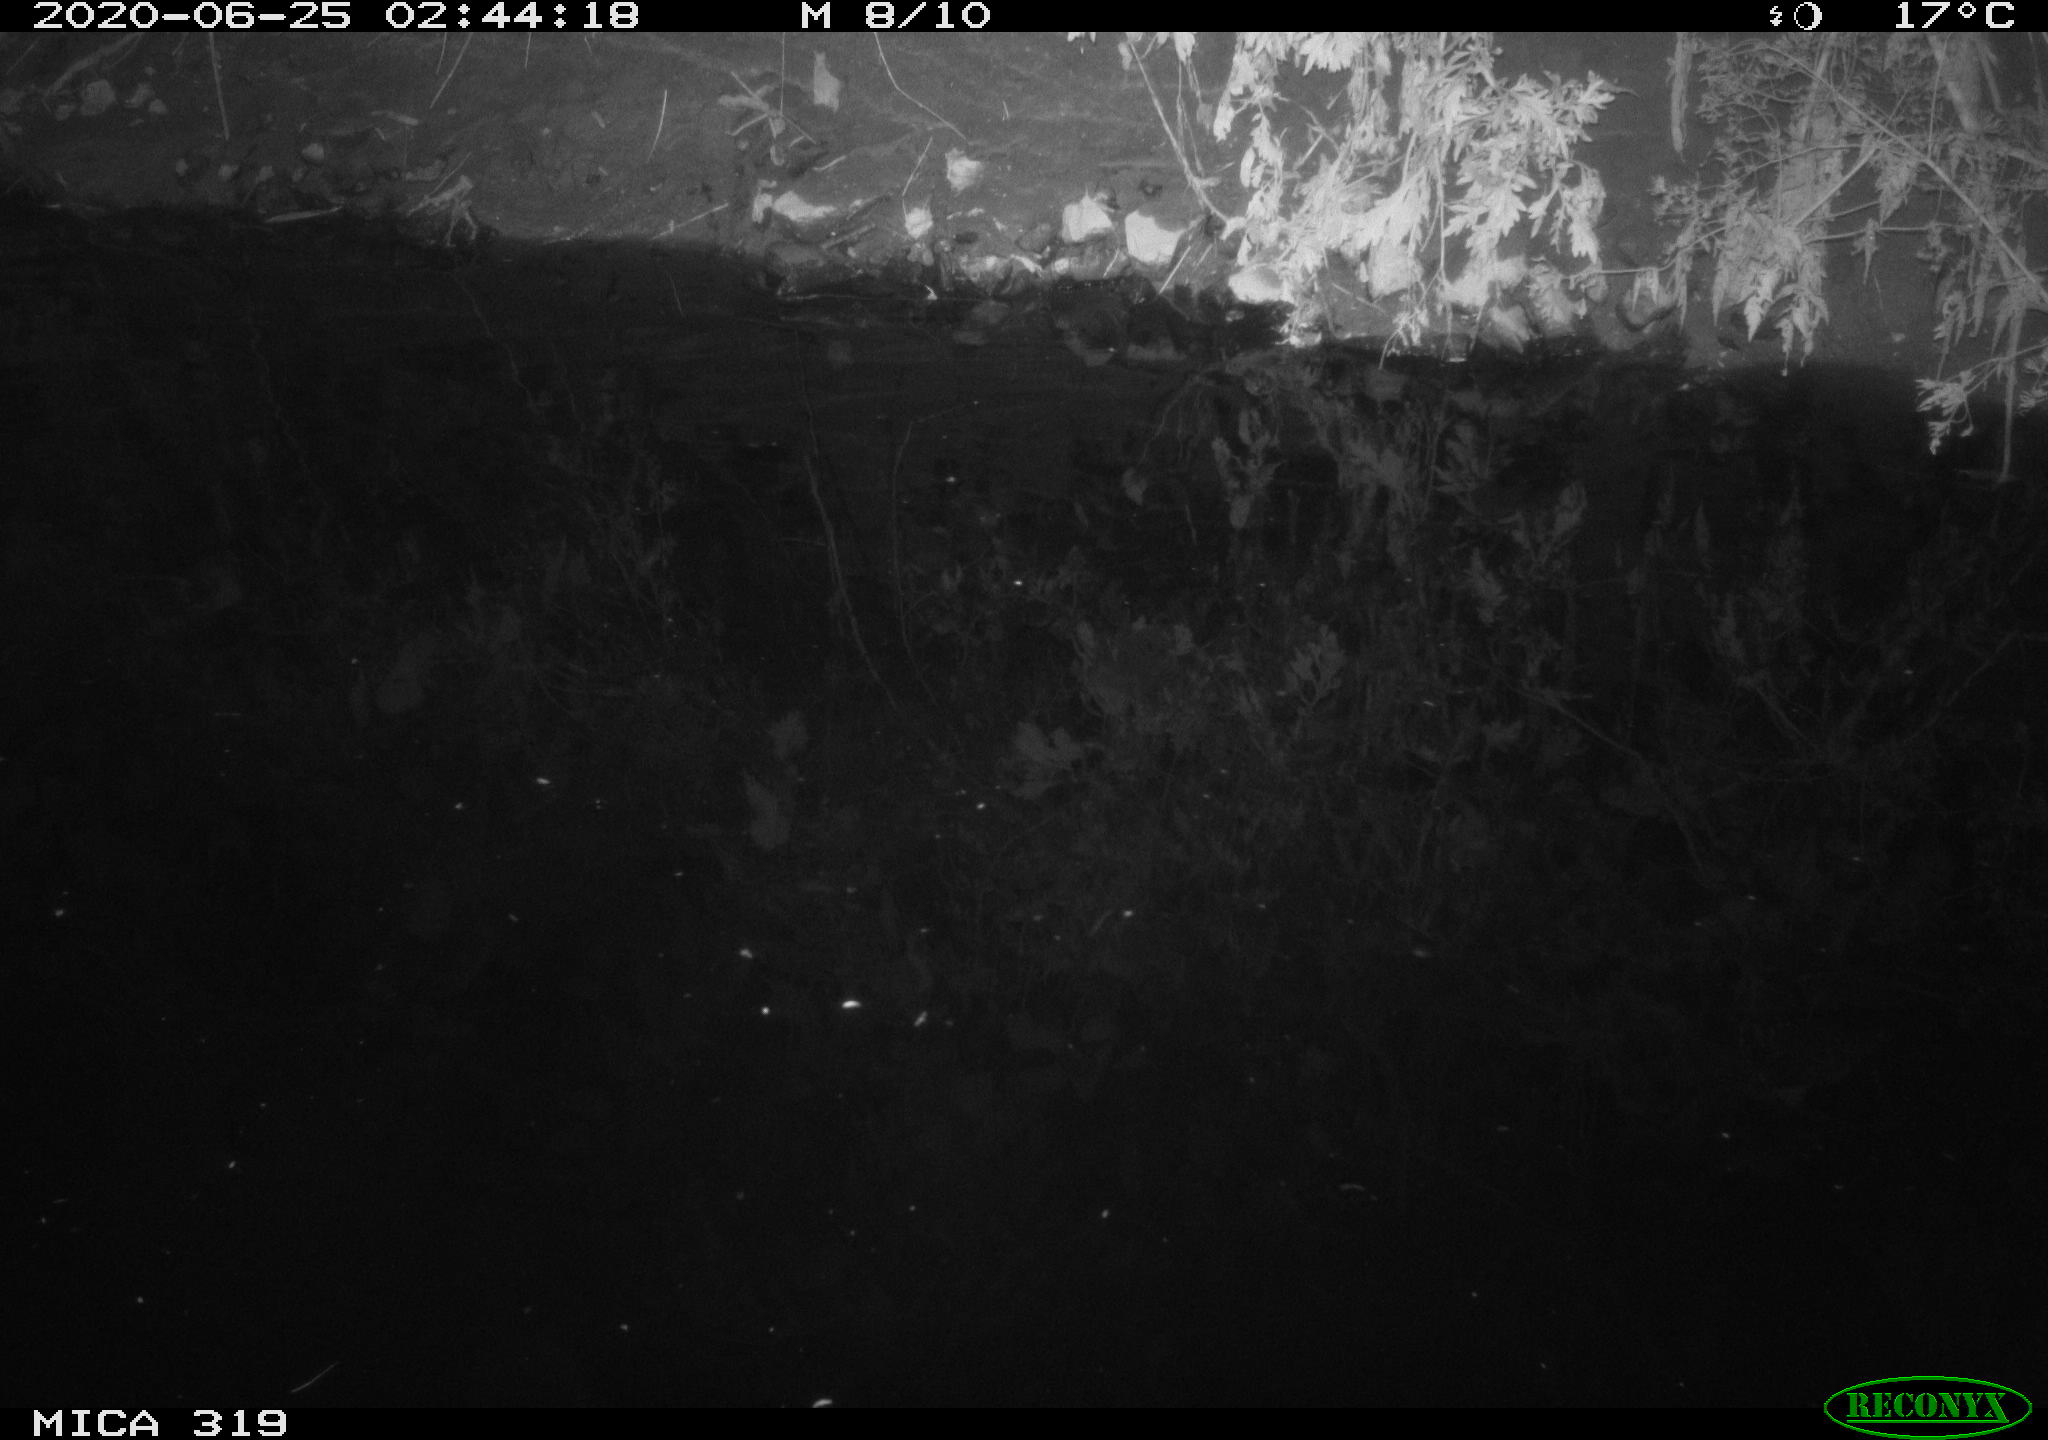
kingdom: Animalia
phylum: Chordata
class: Aves
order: Anseriformes
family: Anatidae
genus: Anas
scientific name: Anas platyrhynchos
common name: Mallard
